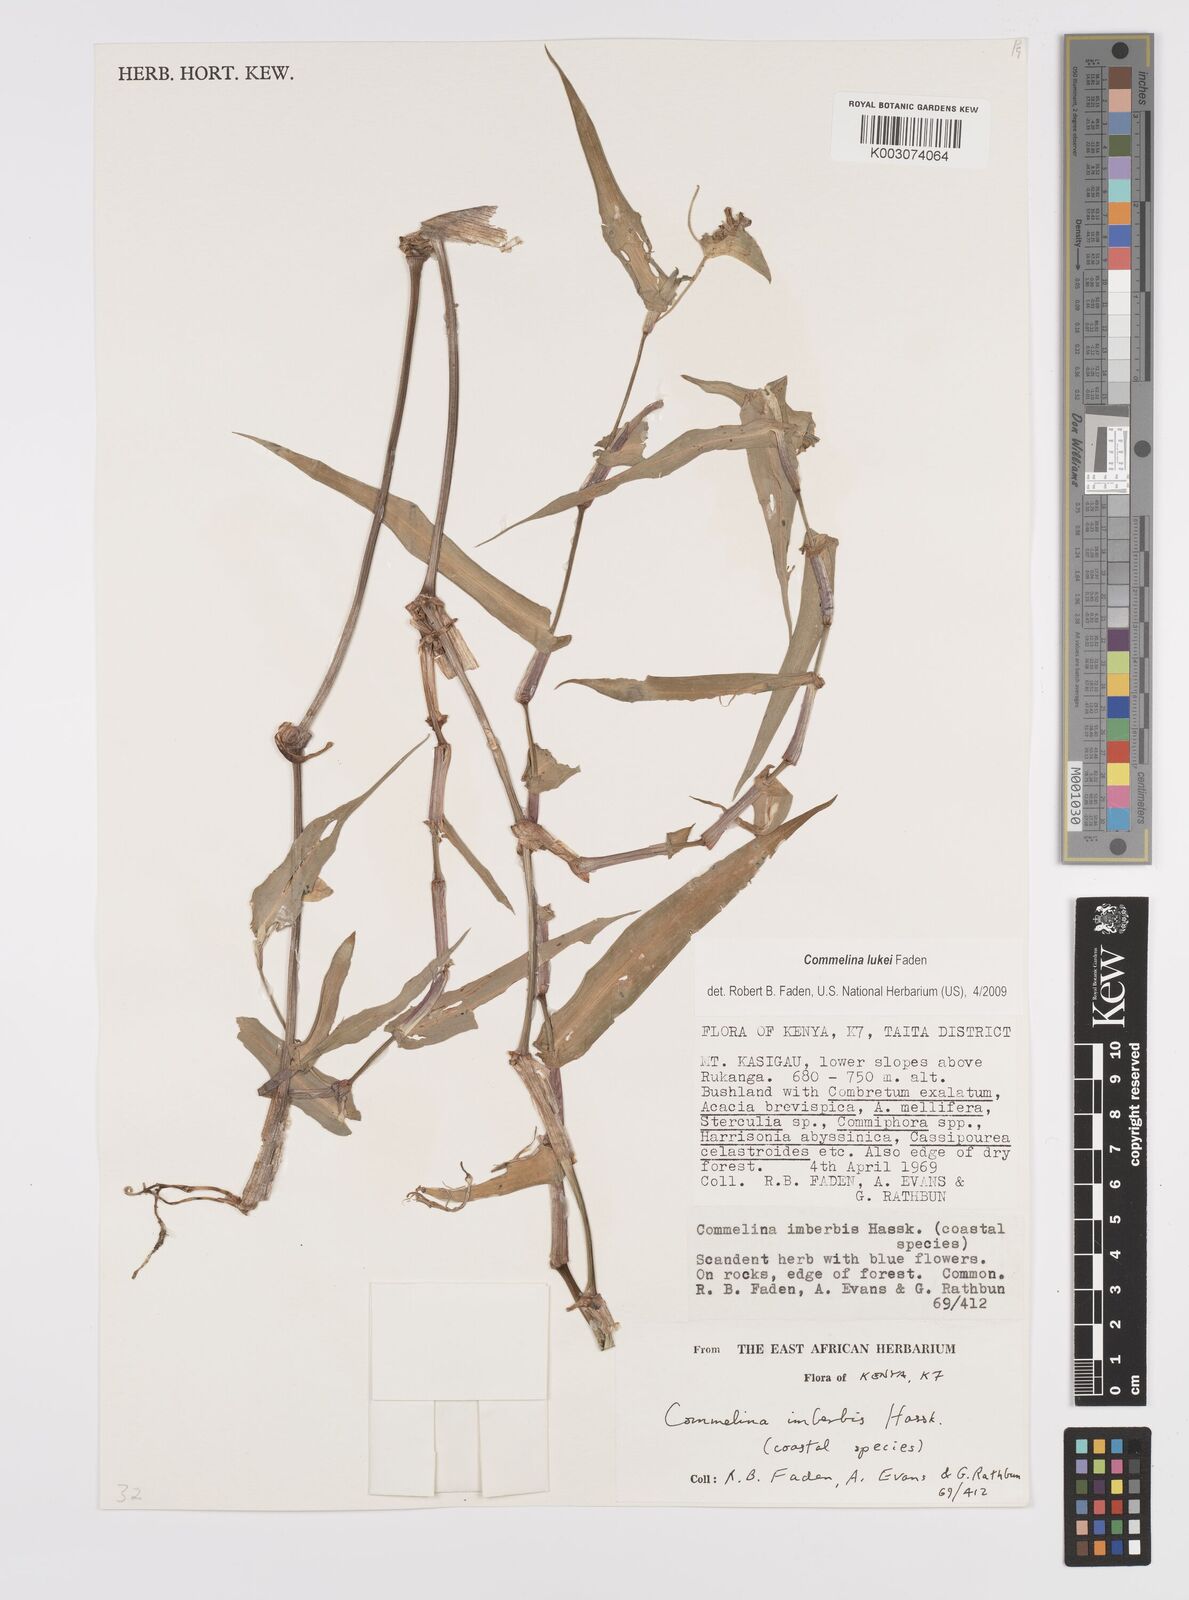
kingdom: Plantae
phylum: Tracheophyta
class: Liliopsida
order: Commelinales
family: Commelinaceae
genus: Commelina
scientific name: Commelina lukei
